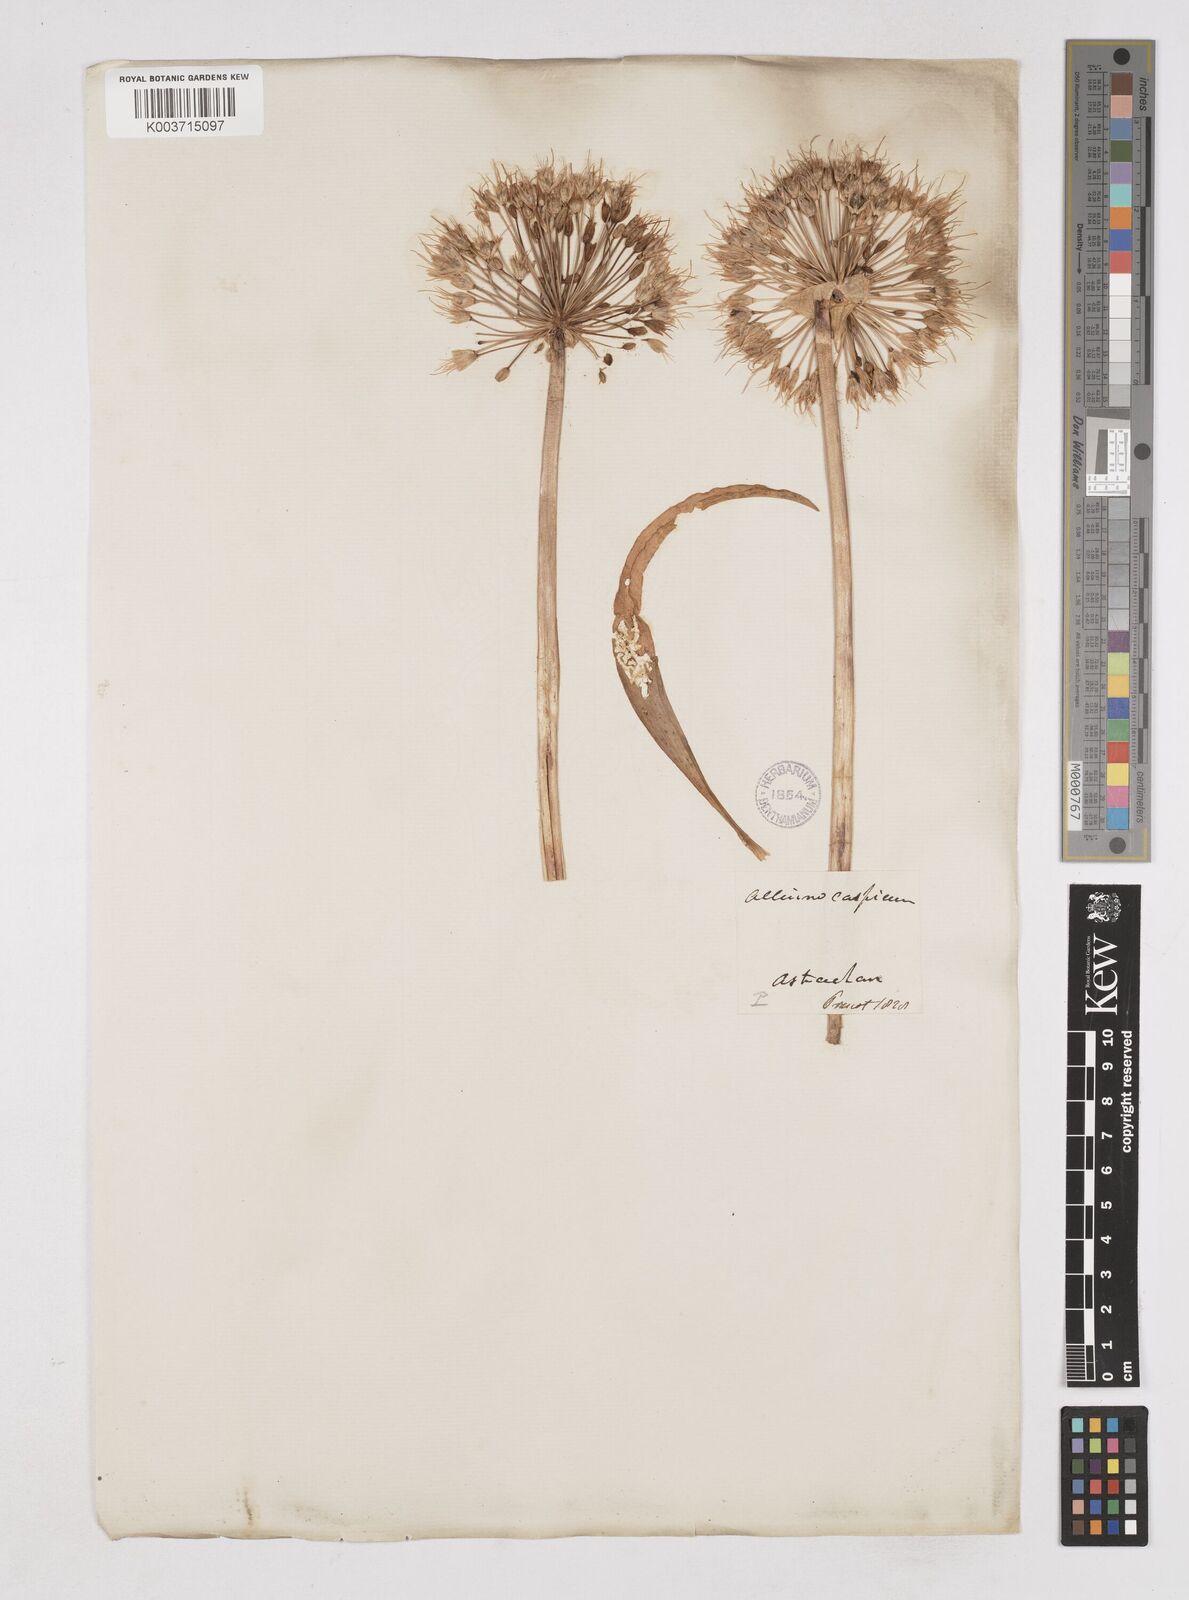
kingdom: Plantae
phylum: Tracheophyta
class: Liliopsida
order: Asparagales
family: Amaryllidaceae
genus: Allium
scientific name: Allium caspium
